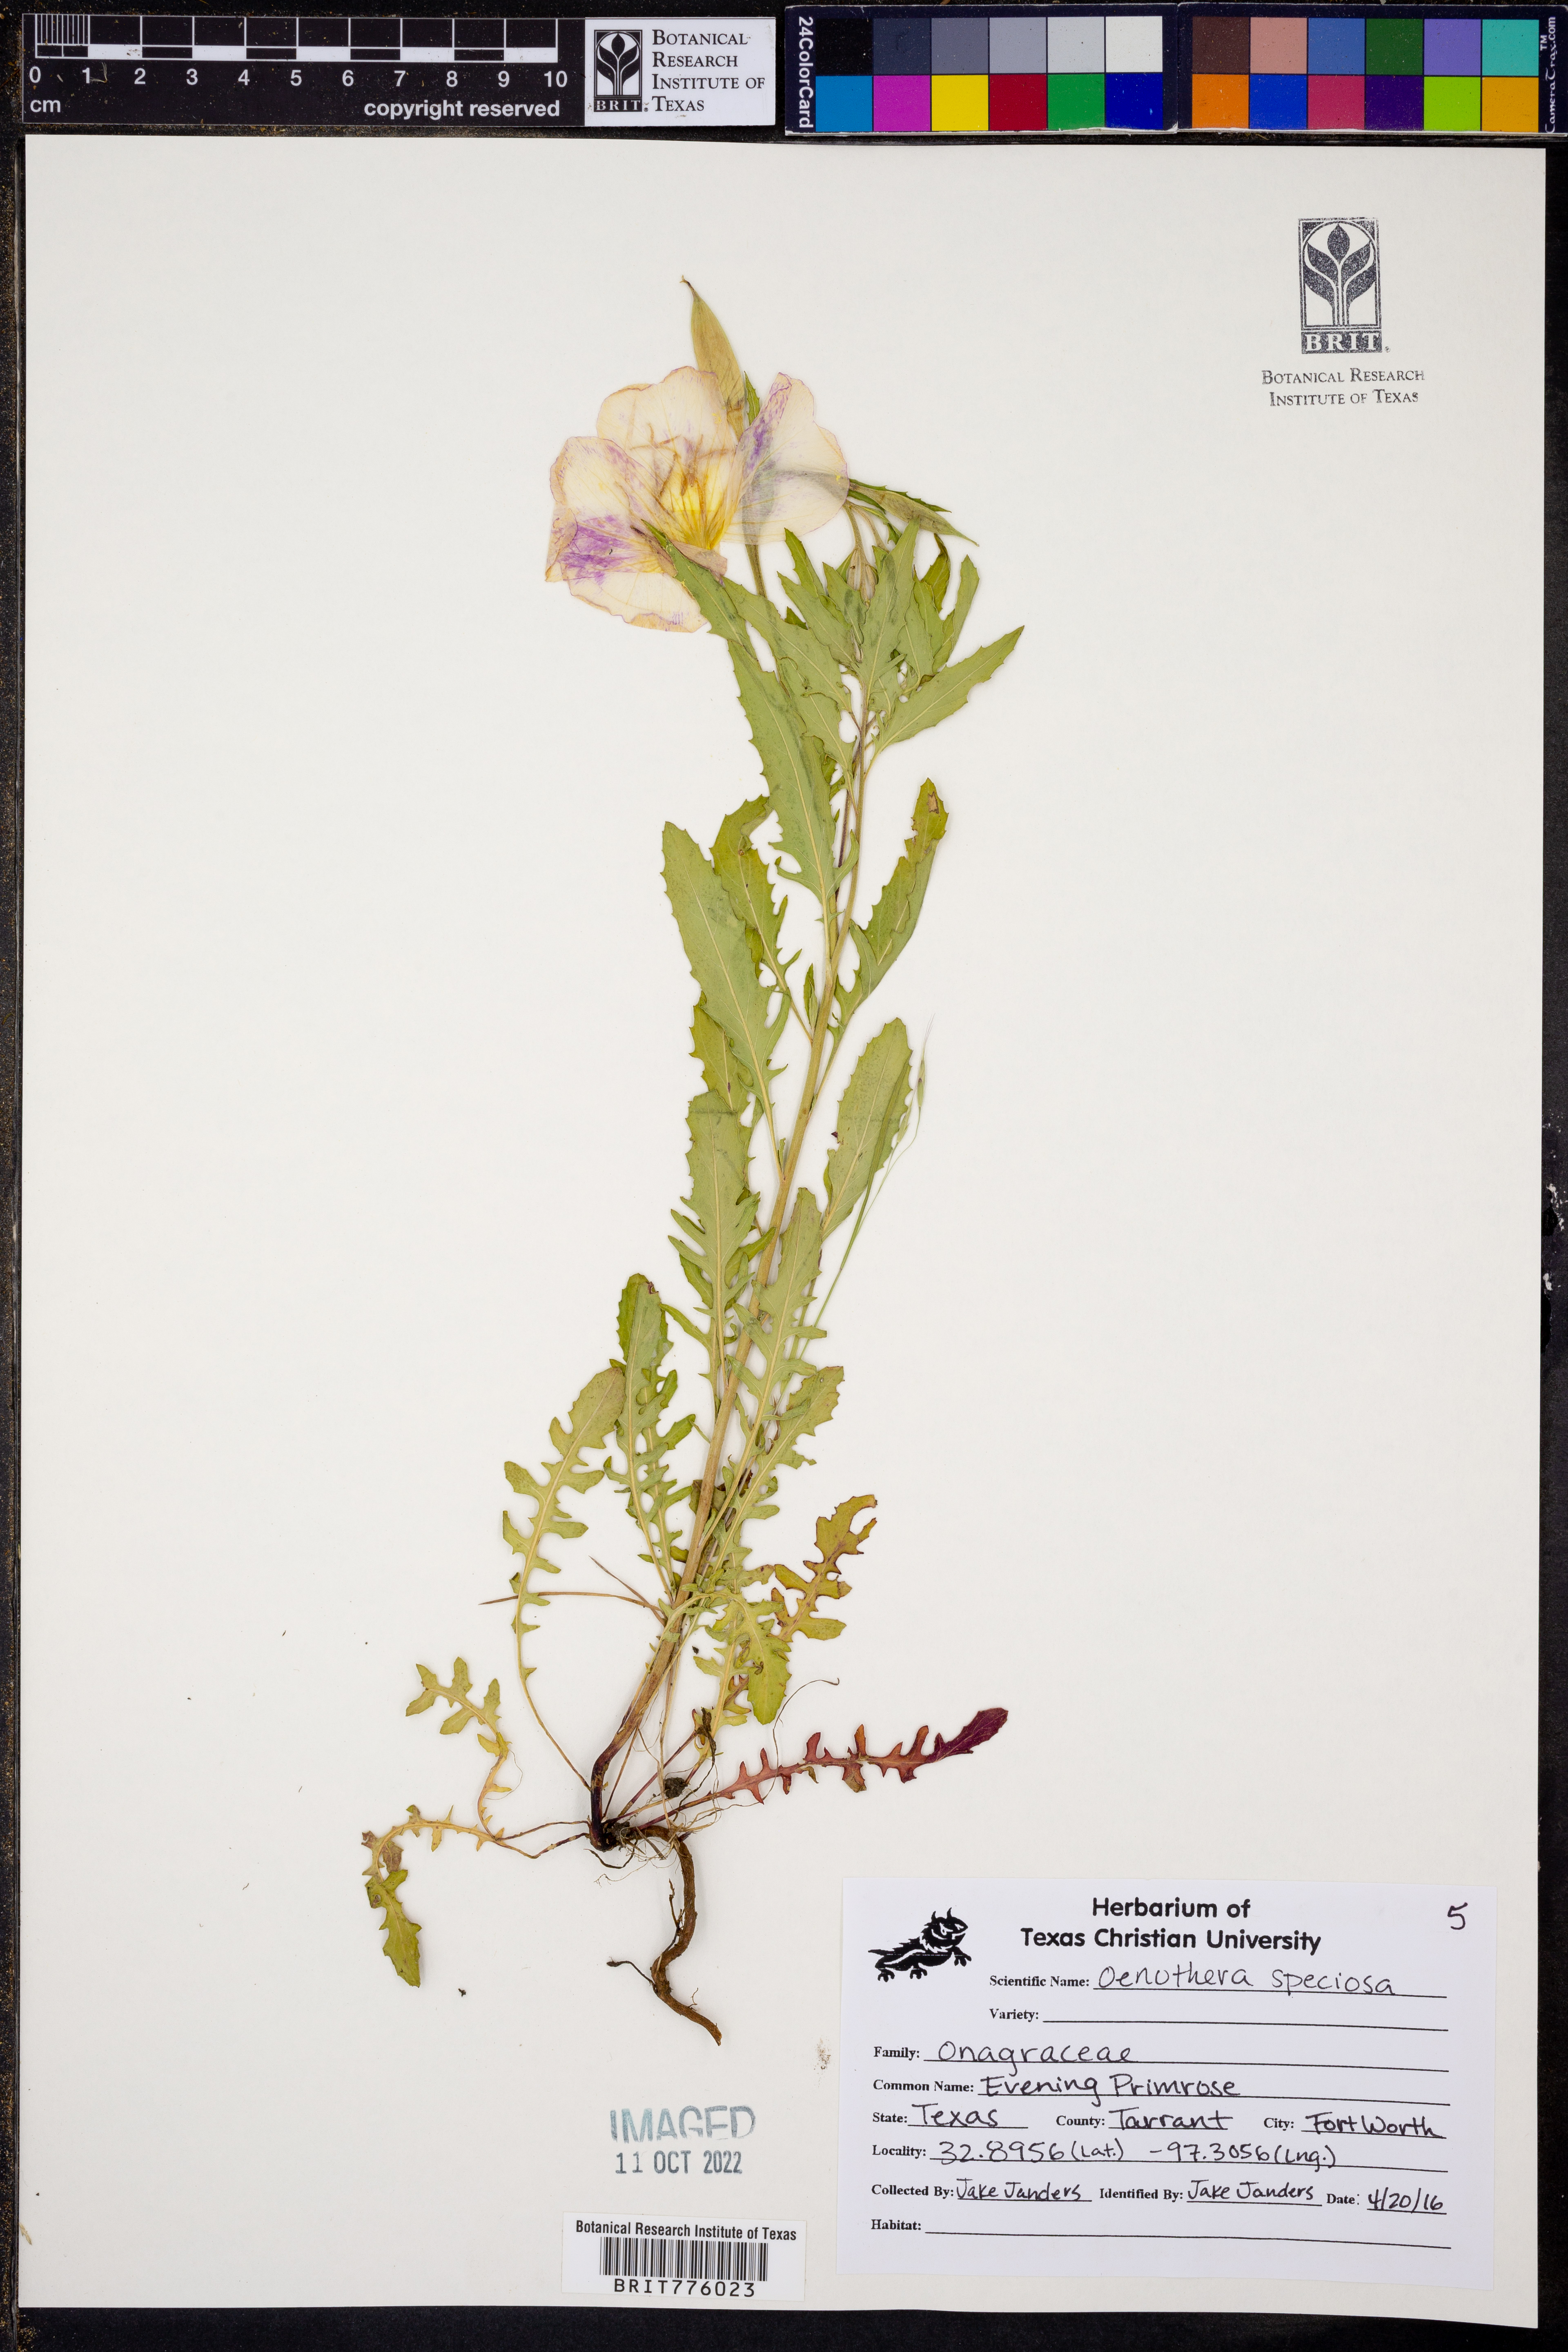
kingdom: Plantae
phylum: Tracheophyta
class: Magnoliopsida
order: Myrtales
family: Onagraceae
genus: Oenothera
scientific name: Oenothera speciosa
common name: White evening-primrose
